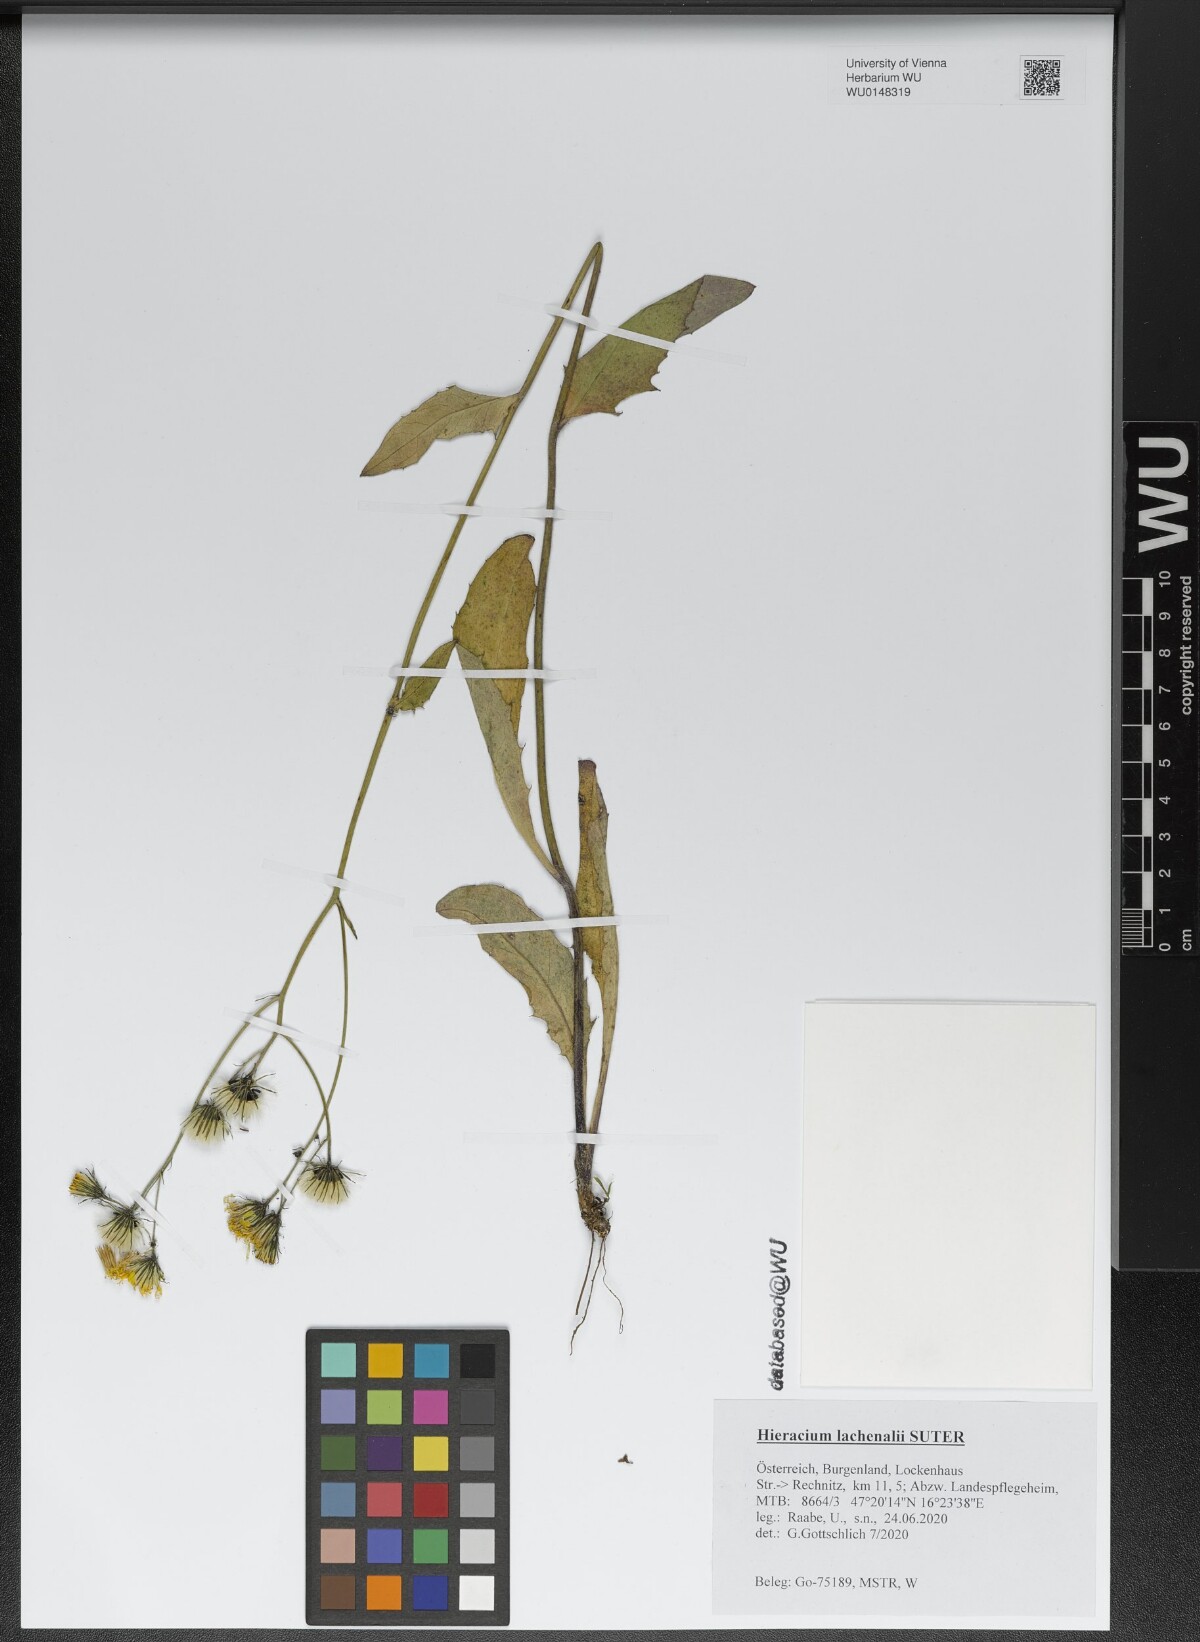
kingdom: Plantae
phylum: Tracheophyta
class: Magnoliopsida
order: Asterales
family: Asteraceae
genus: Hieracium
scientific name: Hieracium lachenalii
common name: Common hawkweed
